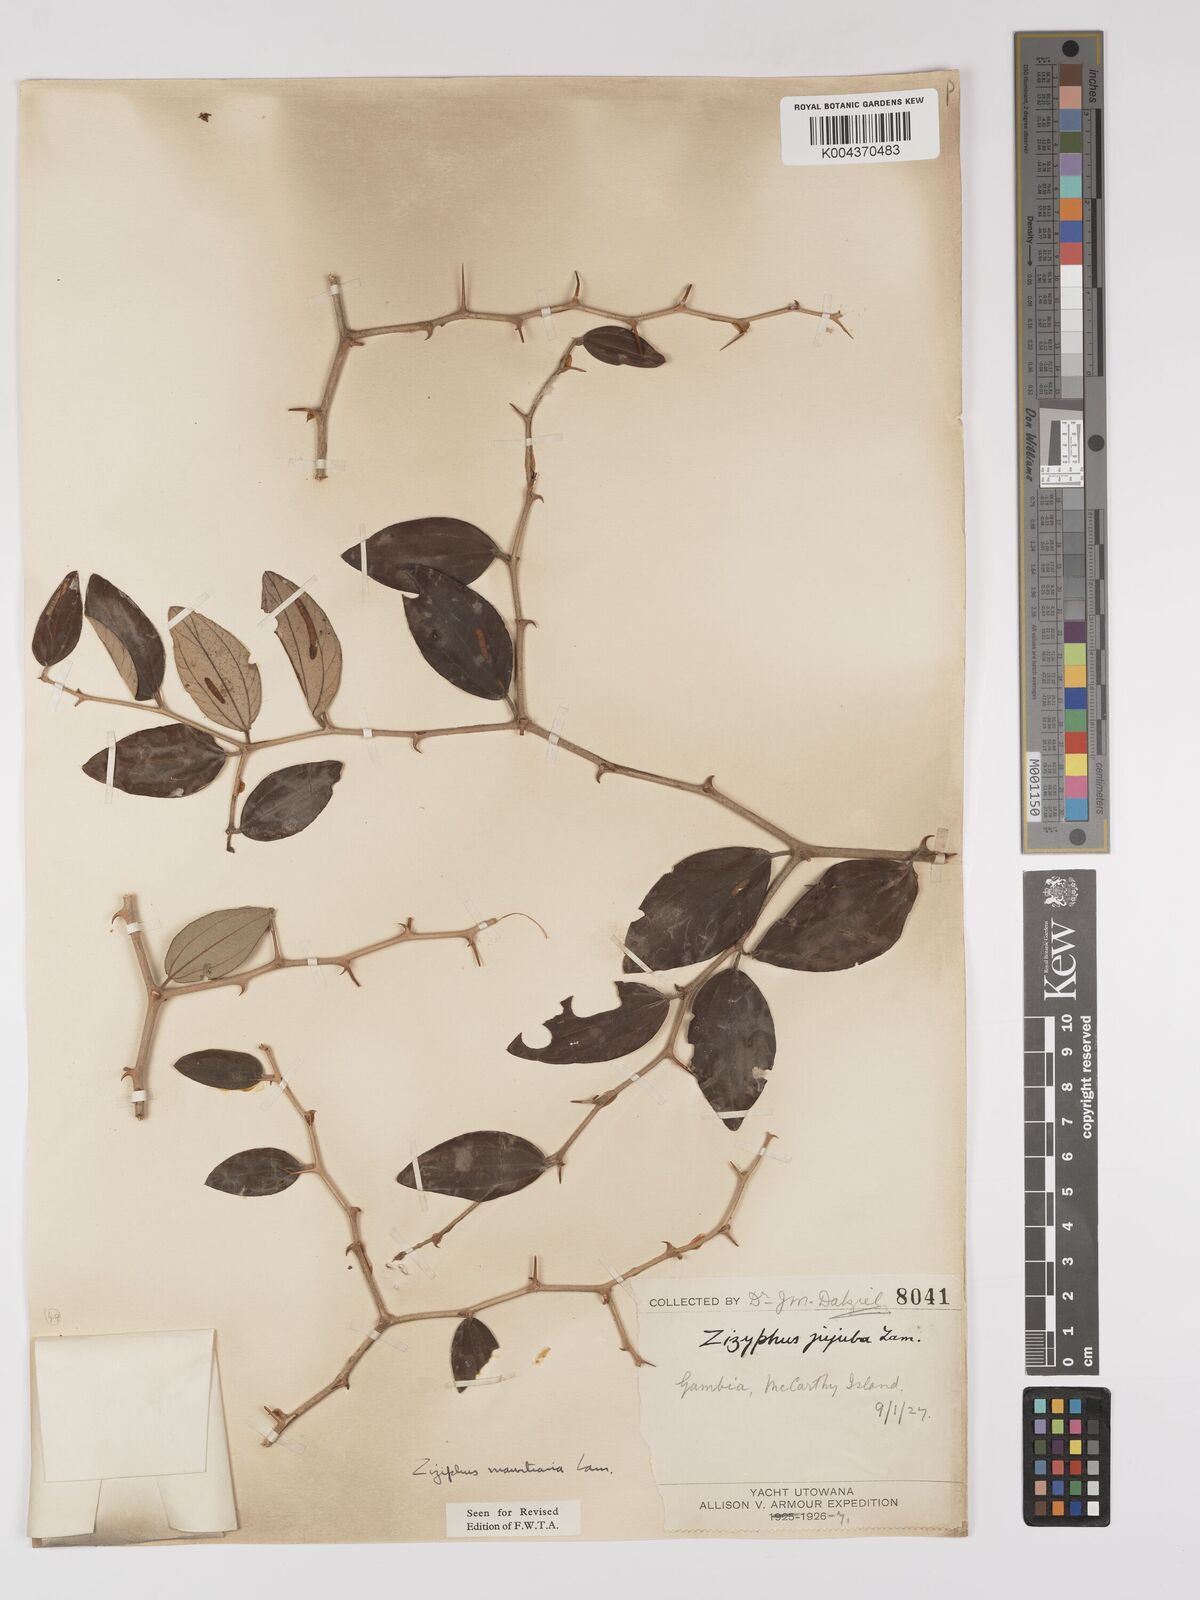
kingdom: Plantae
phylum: Tracheophyta
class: Magnoliopsida
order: Rosales
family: Rhamnaceae
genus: Ziziphus
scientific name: Ziziphus mauritiana
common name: Indian jujube
